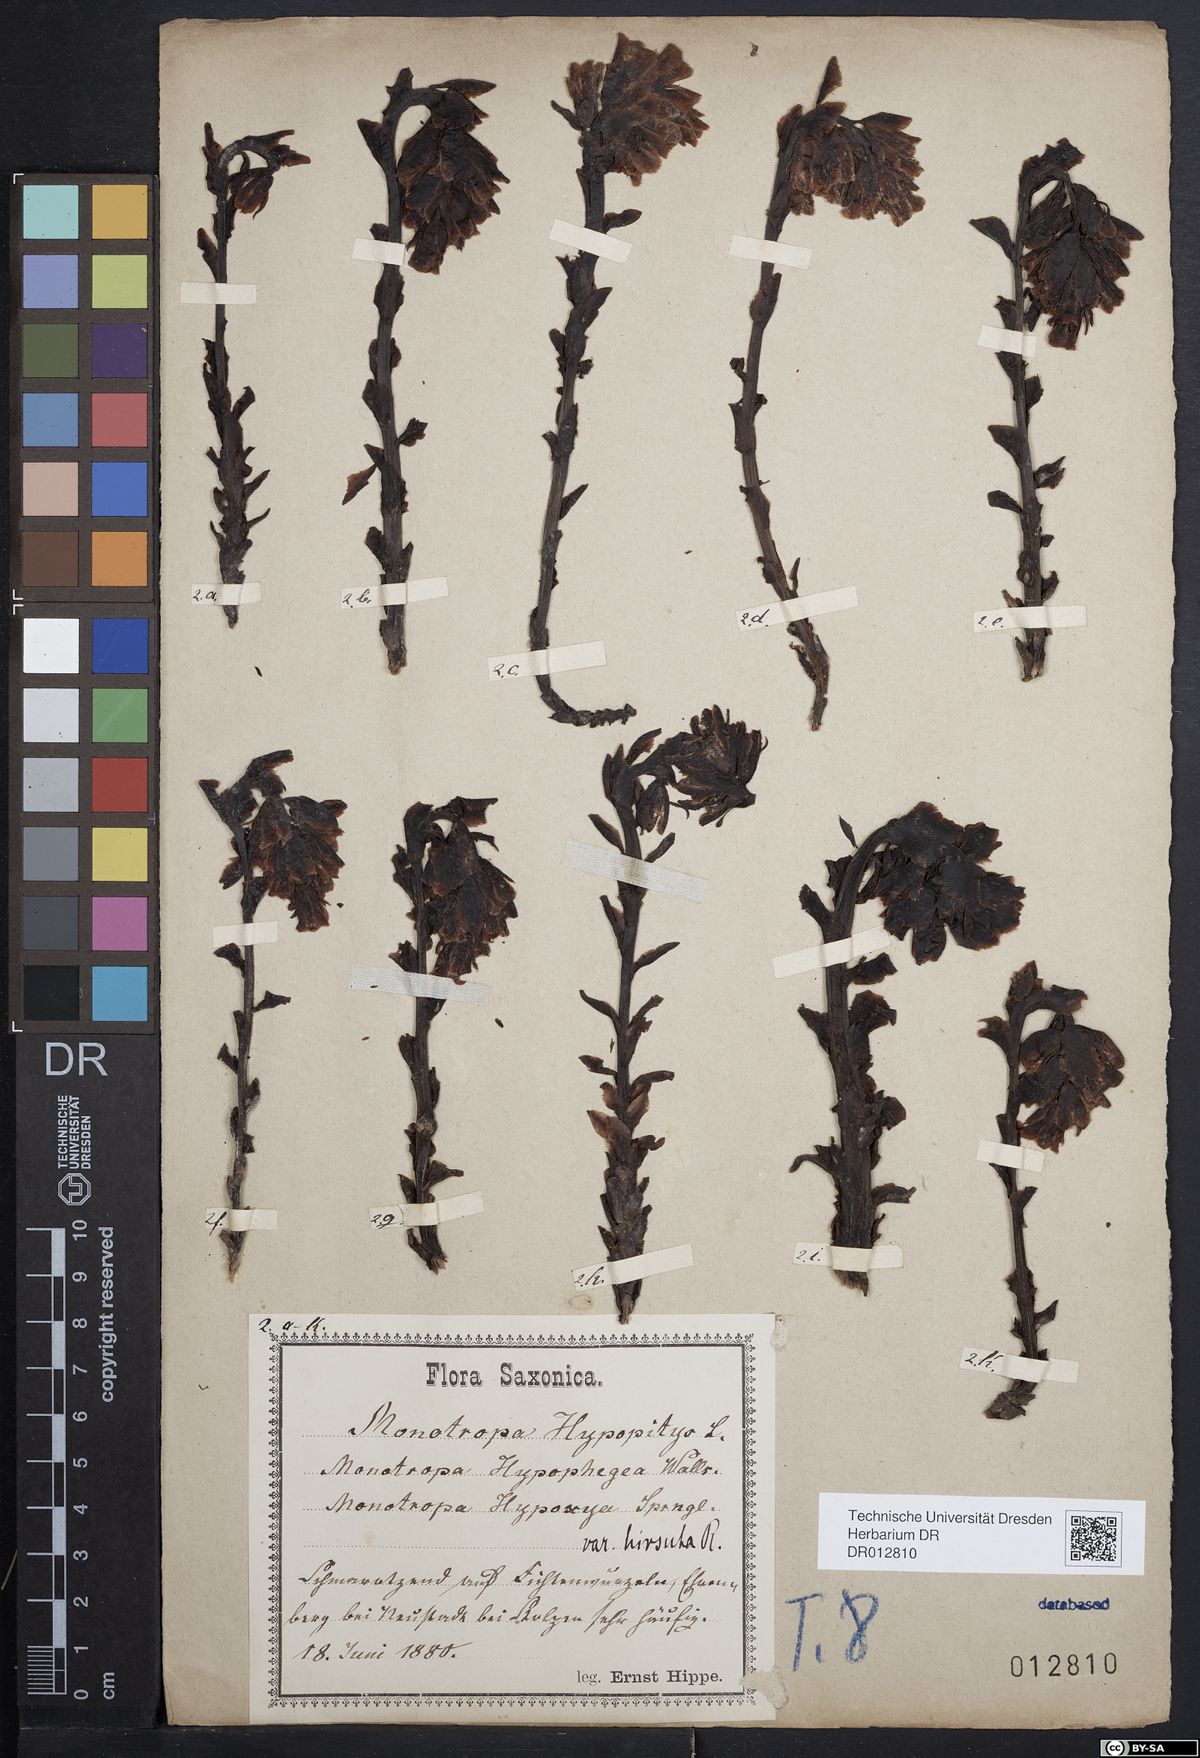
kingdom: Plantae
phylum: Tracheophyta
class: Magnoliopsida
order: Ericales
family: Ericaceae
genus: Hypopitys
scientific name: Hypopitys monotropa
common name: Yellow bird's-nest
